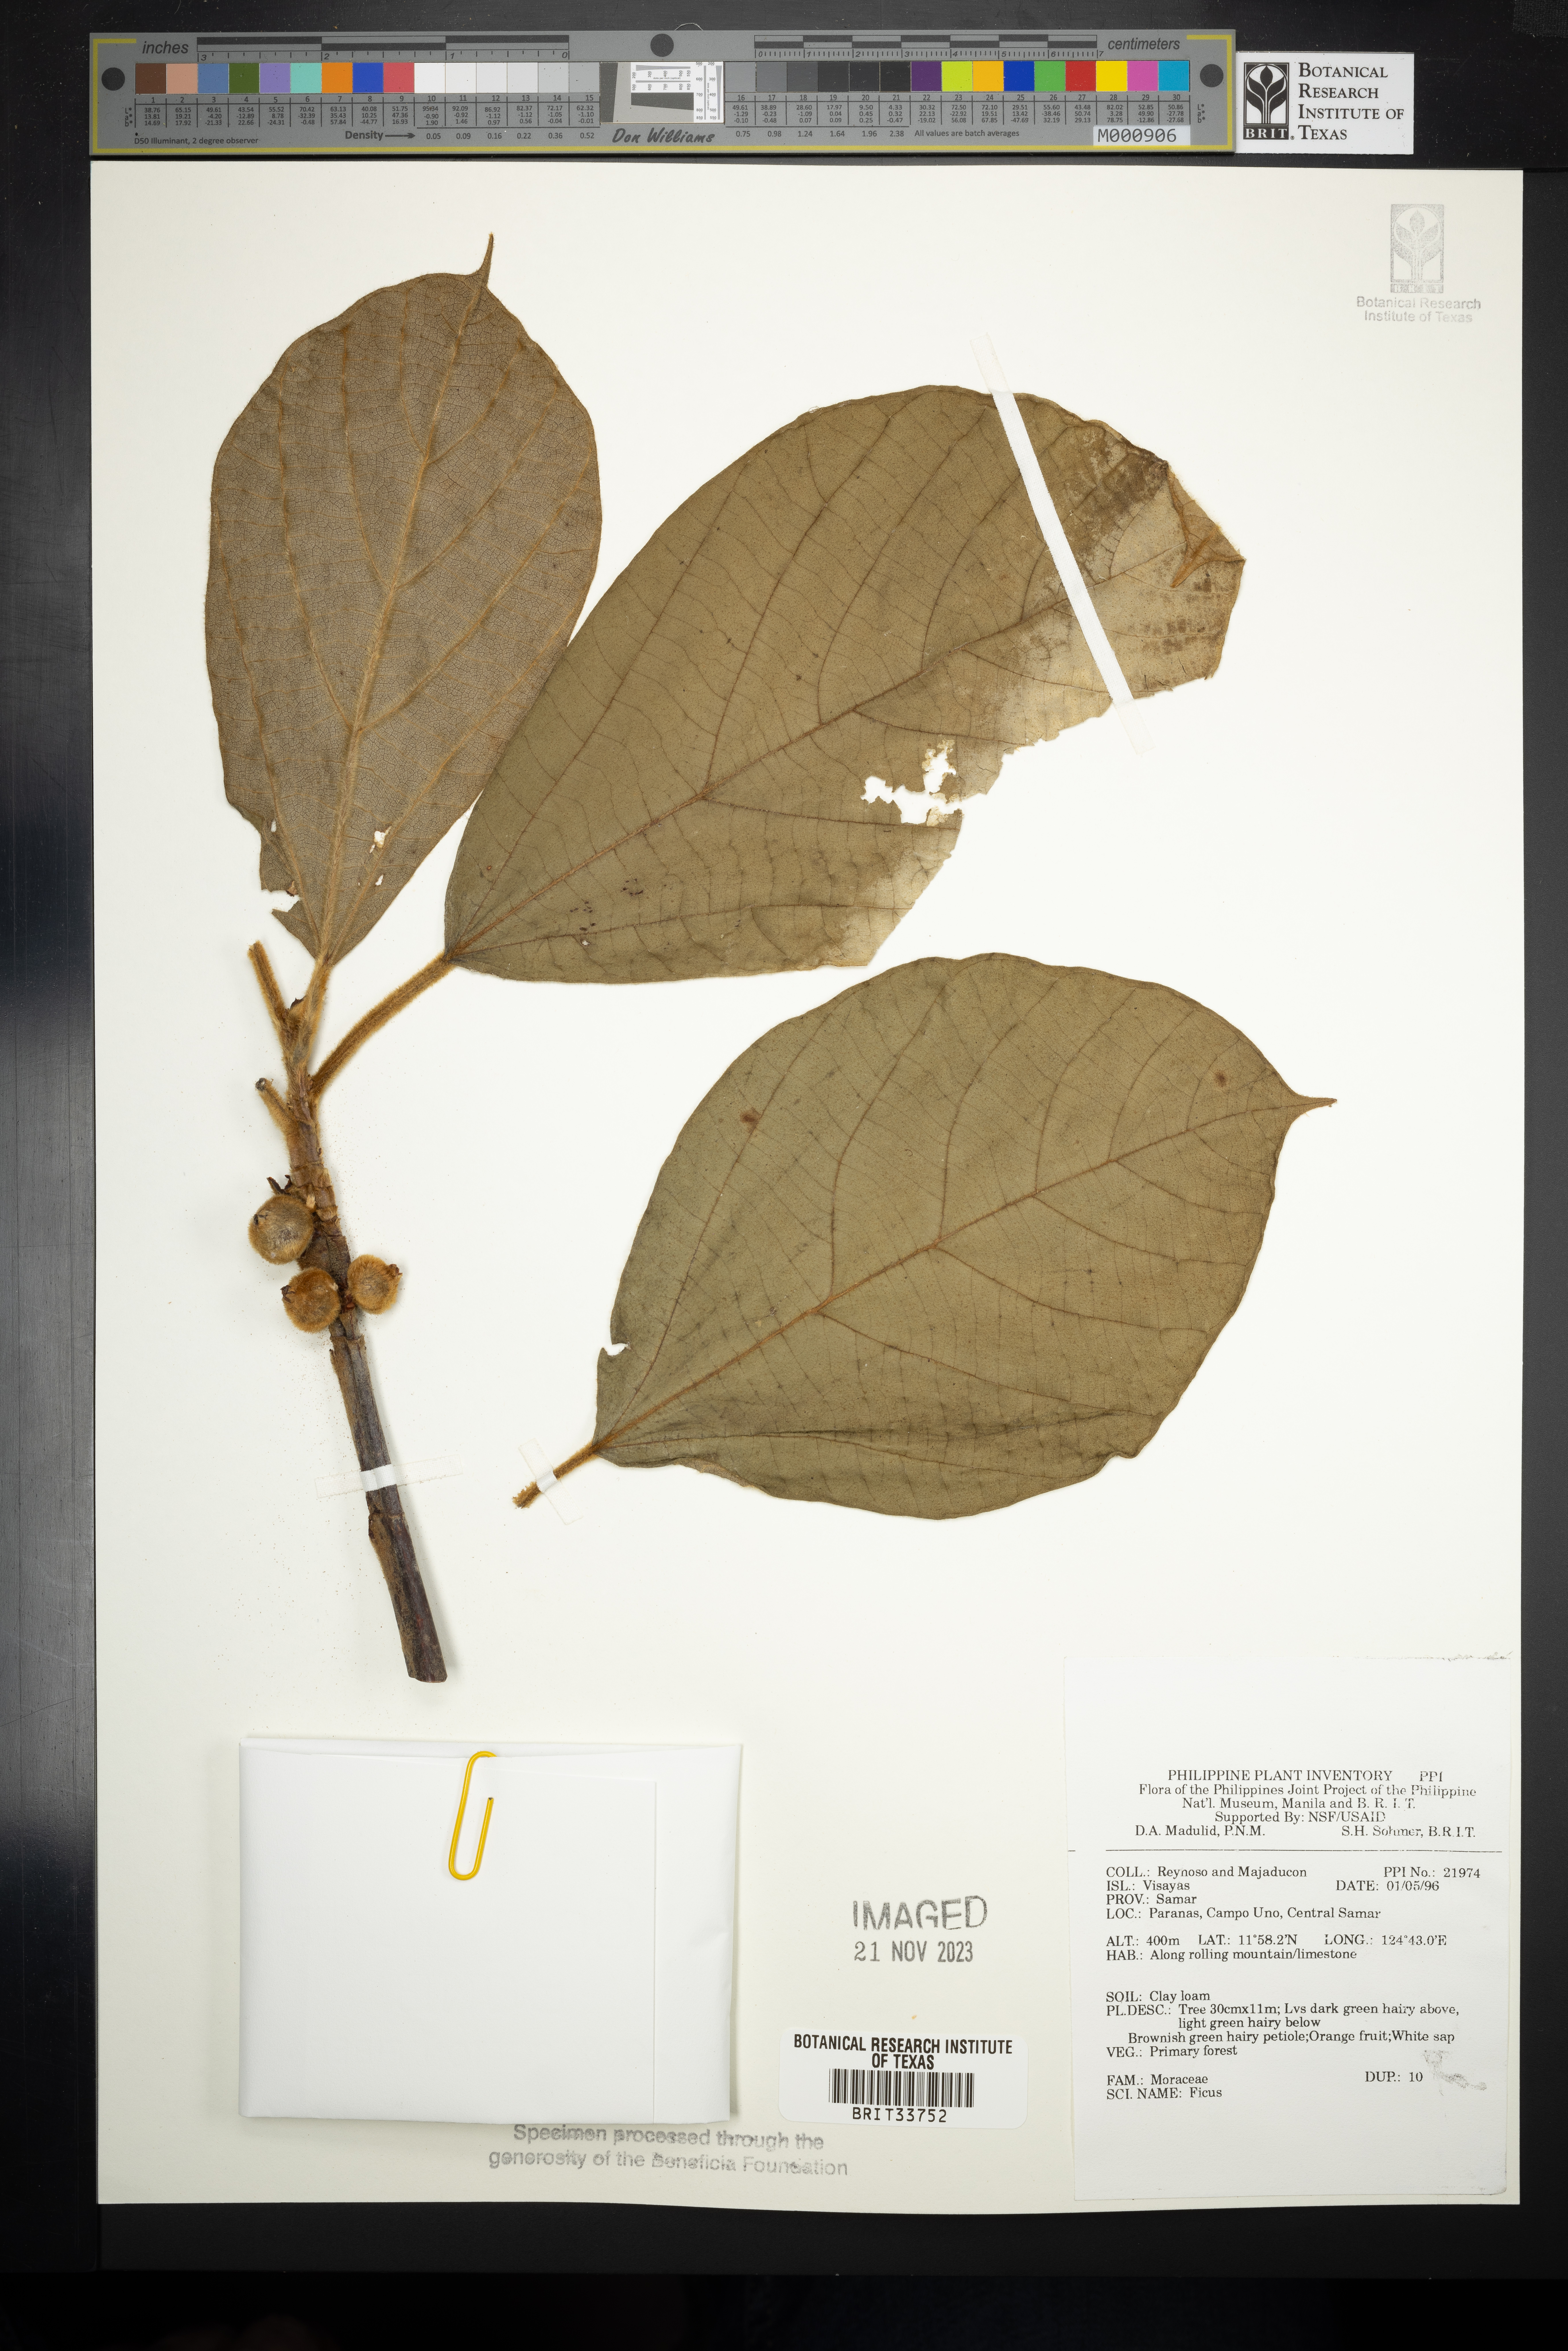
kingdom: Plantae
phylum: Tracheophyta
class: Magnoliopsida
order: Rosales
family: Moraceae
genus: Ficus
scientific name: Ficus
